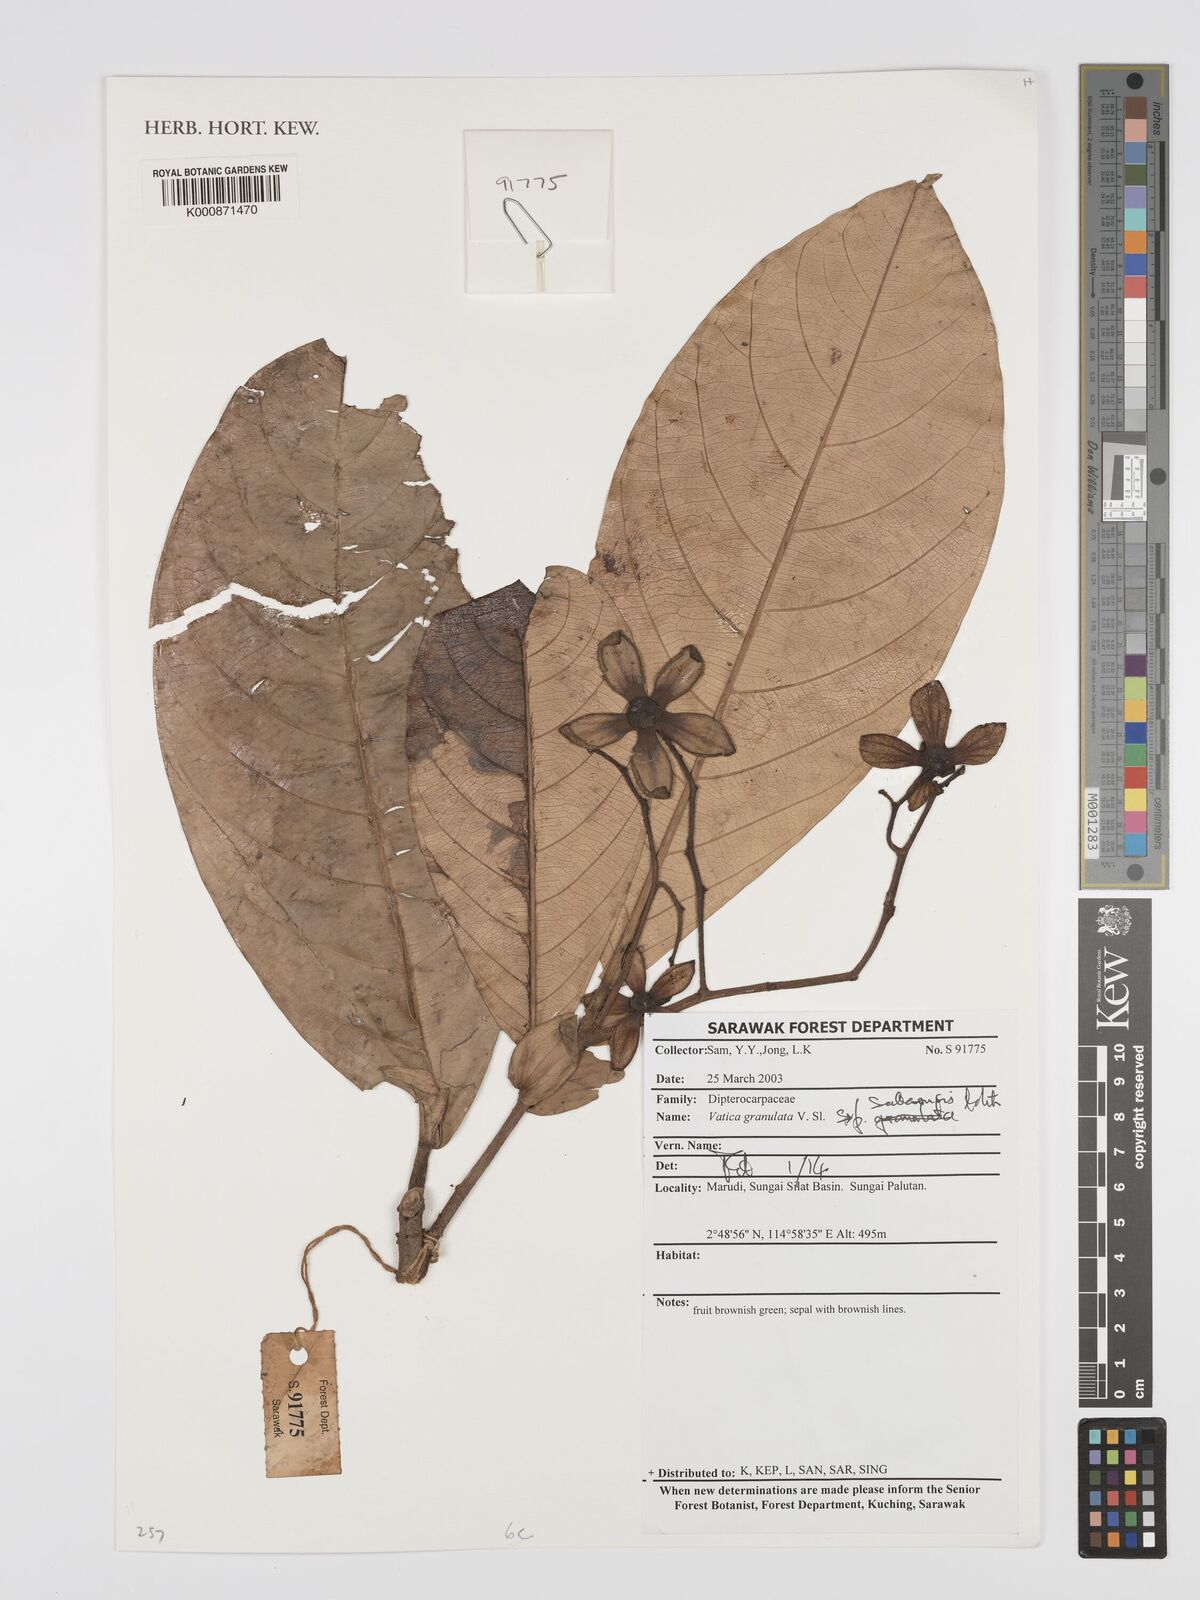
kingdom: Plantae
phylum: Tracheophyta
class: Magnoliopsida
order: Malvales
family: Dipterocarpaceae
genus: Vatica
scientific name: Vatica granulata
